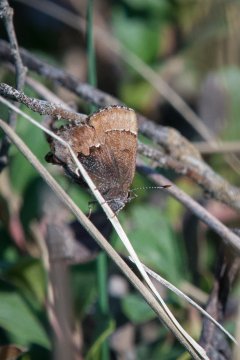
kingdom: Animalia
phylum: Arthropoda
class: Insecta
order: Lepidoptera
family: Lycaenidae
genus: Incisalia
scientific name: Incisalia henrici
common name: Henry's Elfin
